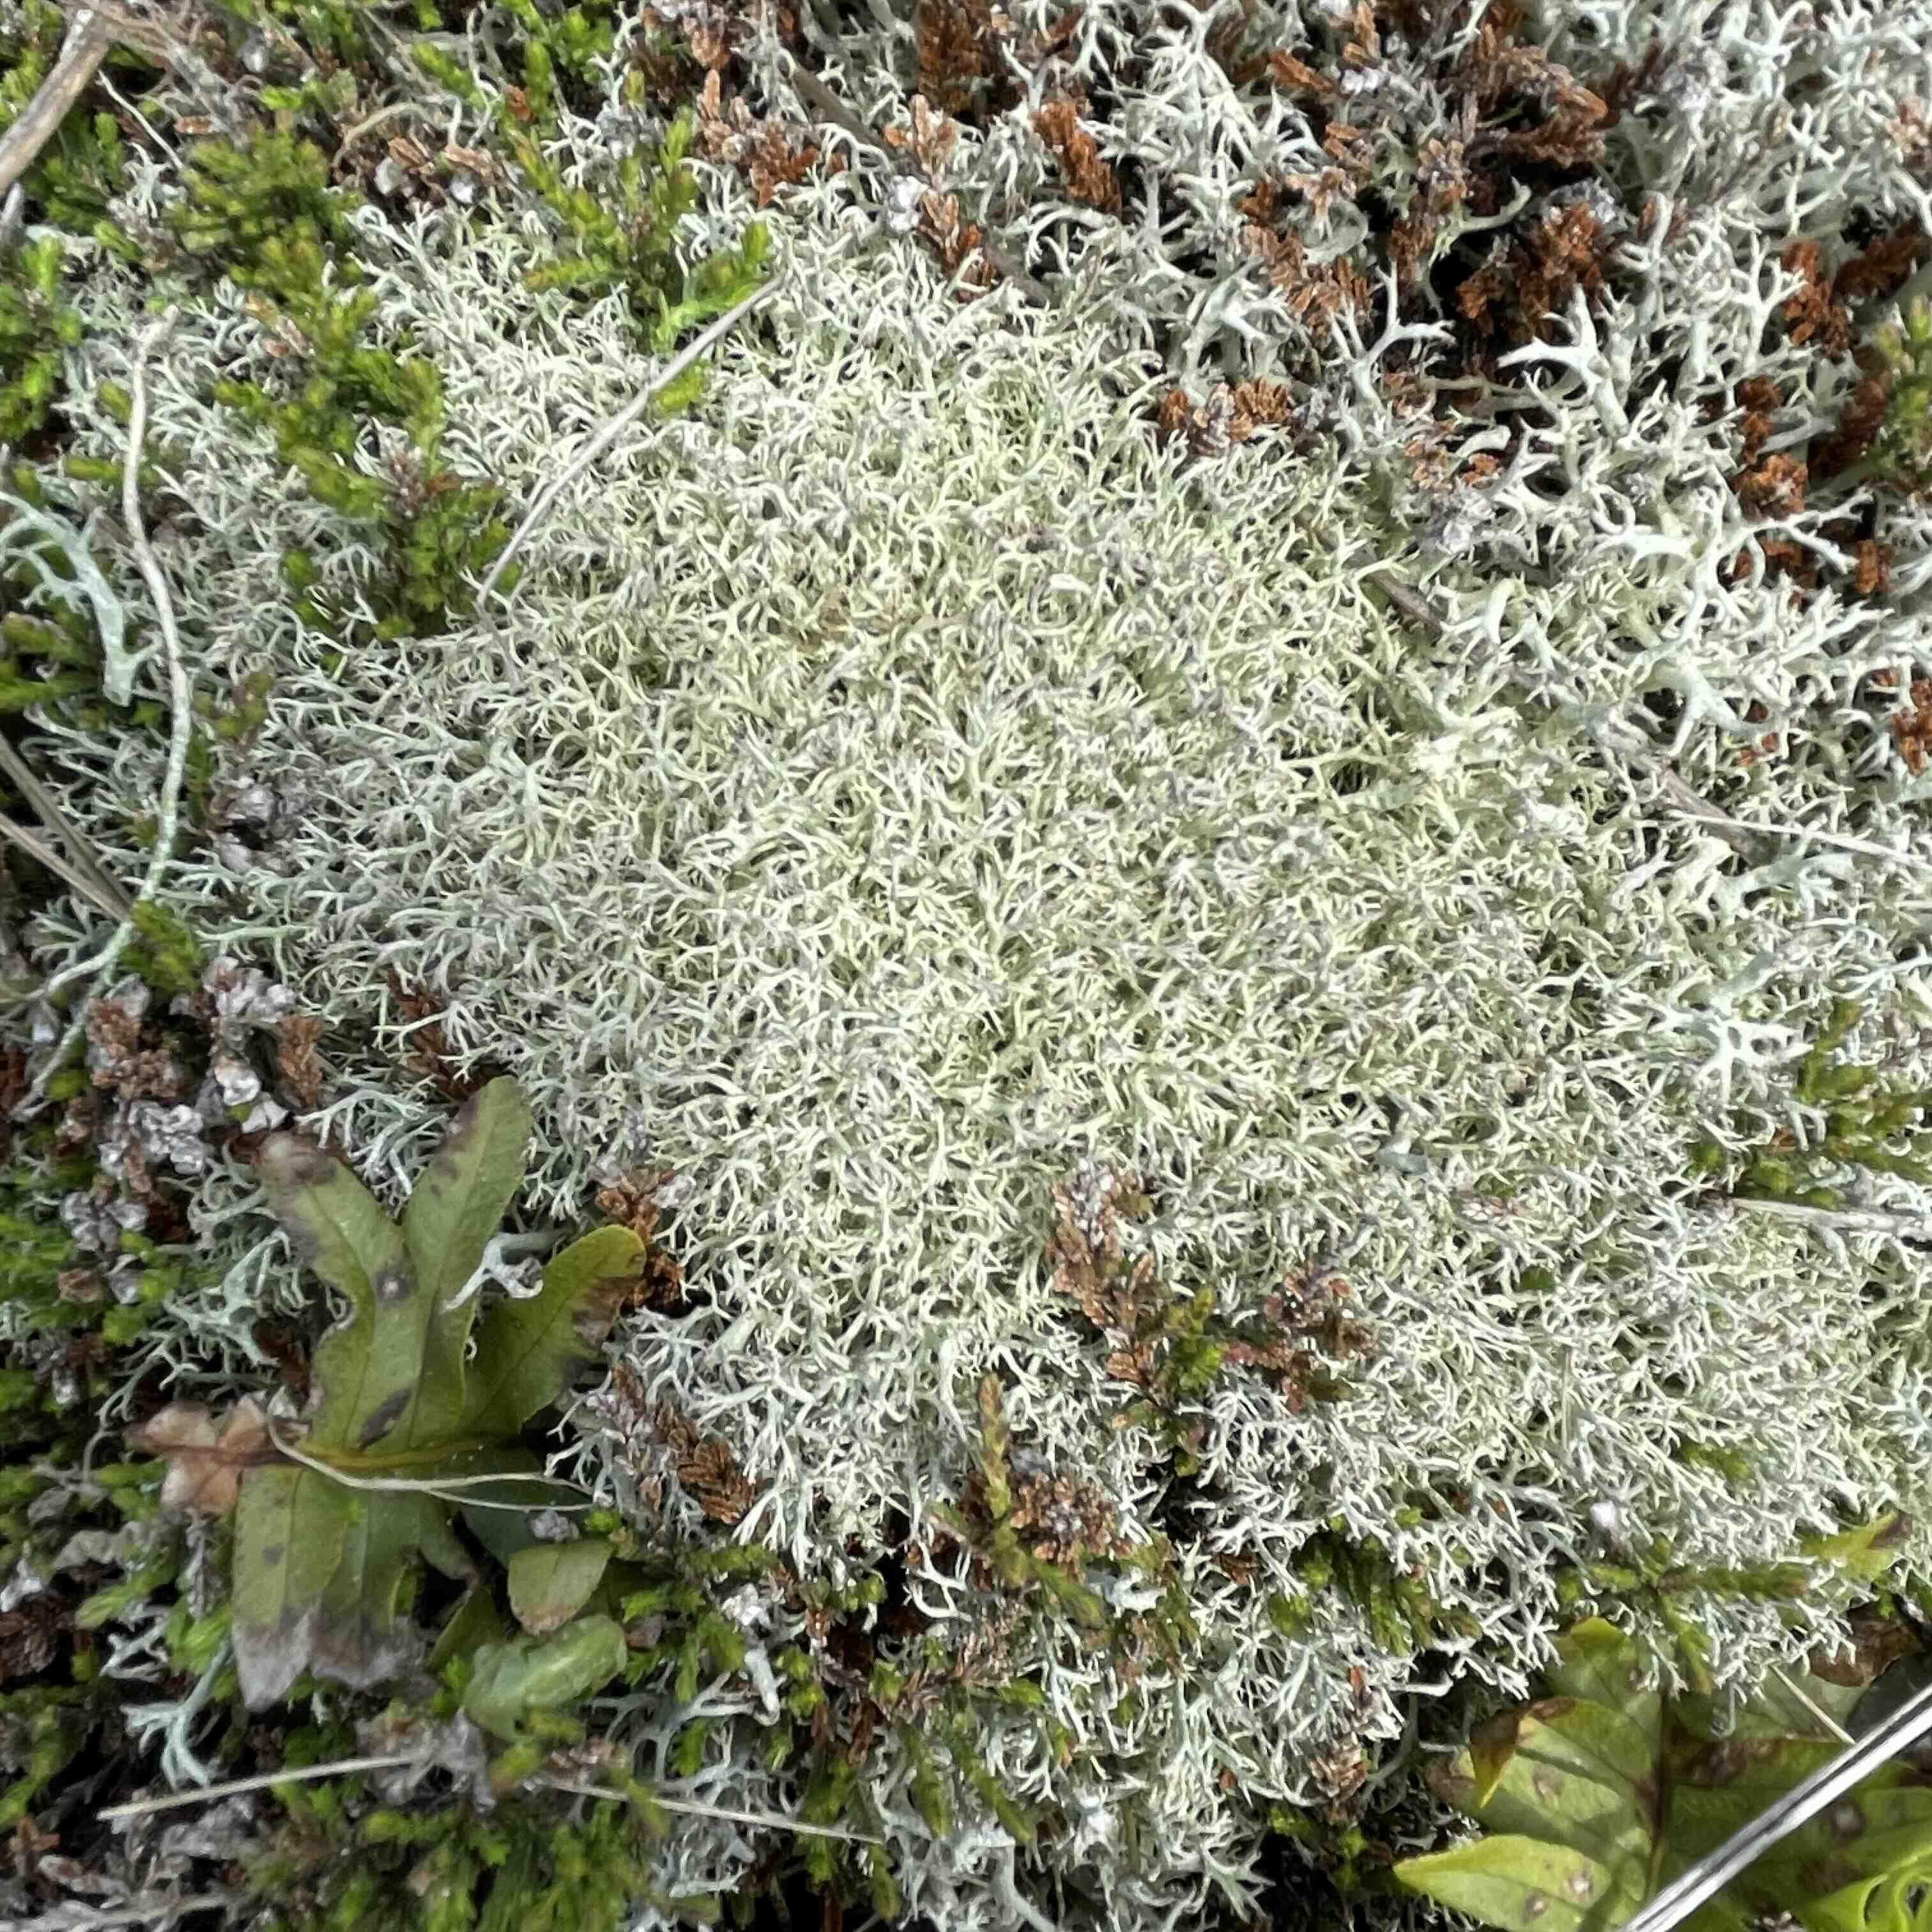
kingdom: Fungi
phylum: Ascomycota
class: Lecanoromycetes
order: Lecanorales
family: Cladoniaceae
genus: Cladonia
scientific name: Cladonia ciliata
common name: spinkel rensdyrlav
